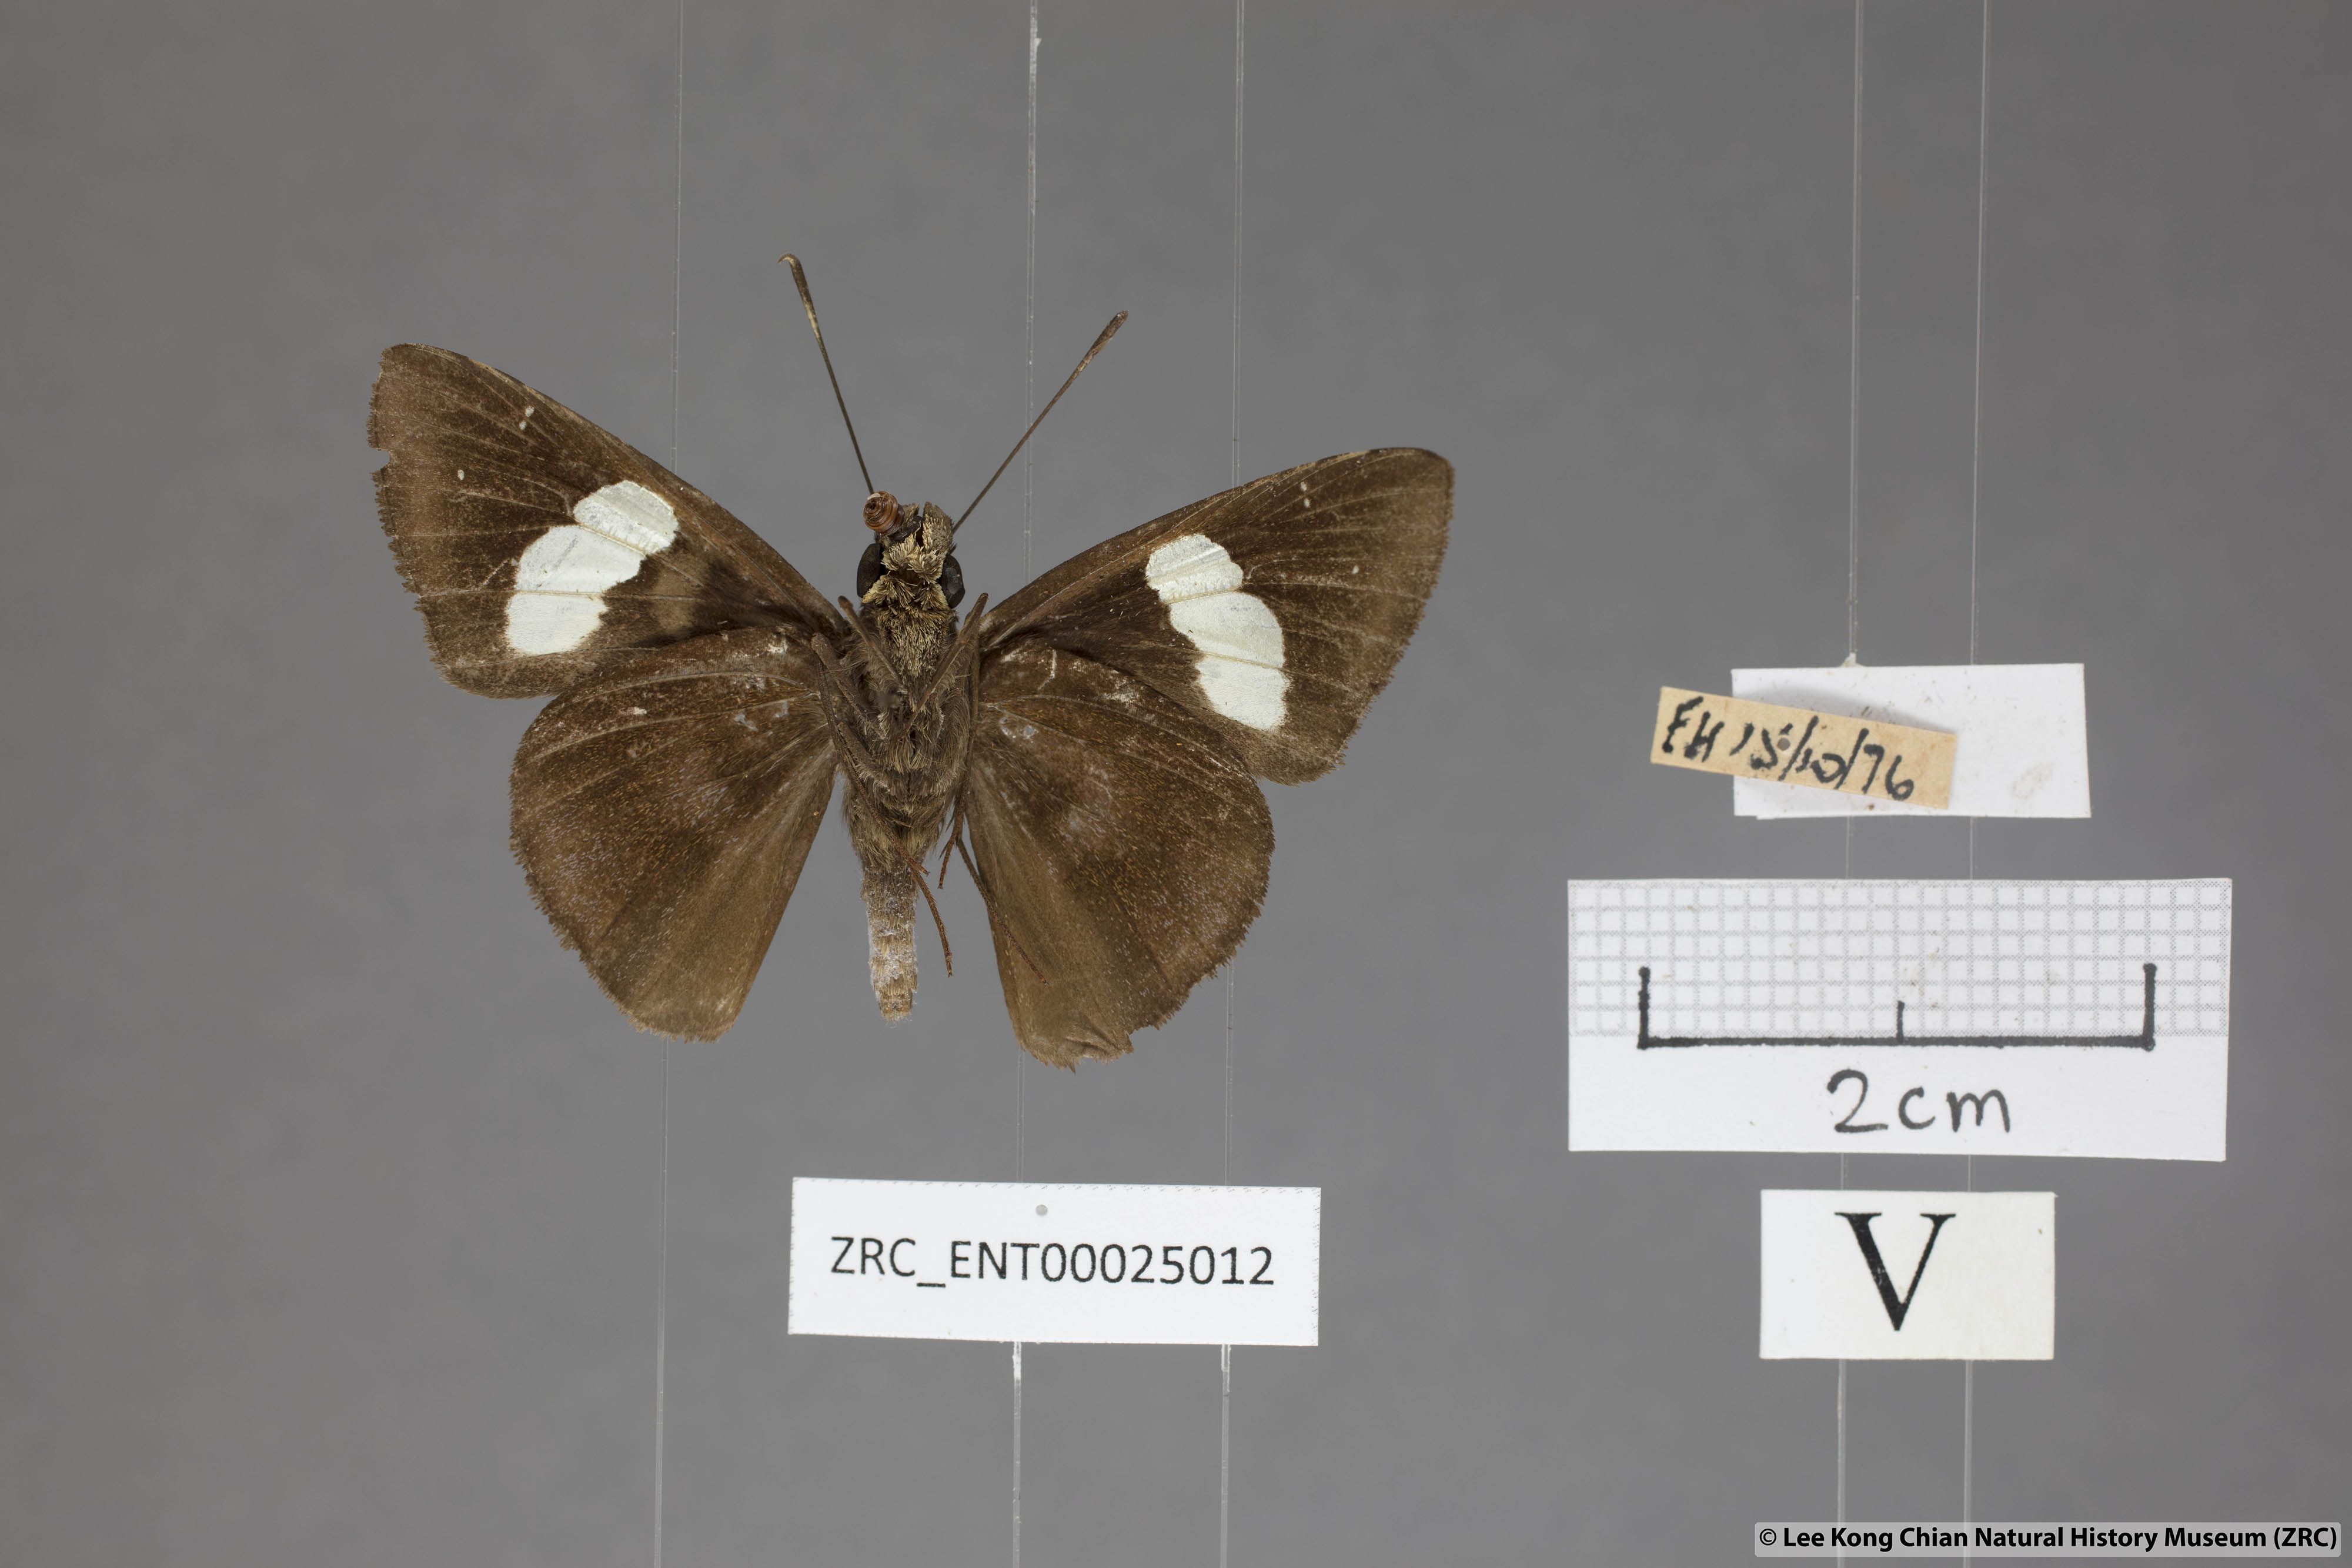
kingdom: Animalia
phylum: Arthropoda
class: Insecta
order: Lepidoptera
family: Hesperiidae
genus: Notocrypta
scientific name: Notocrypta feisthamelii
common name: Spotted demon
